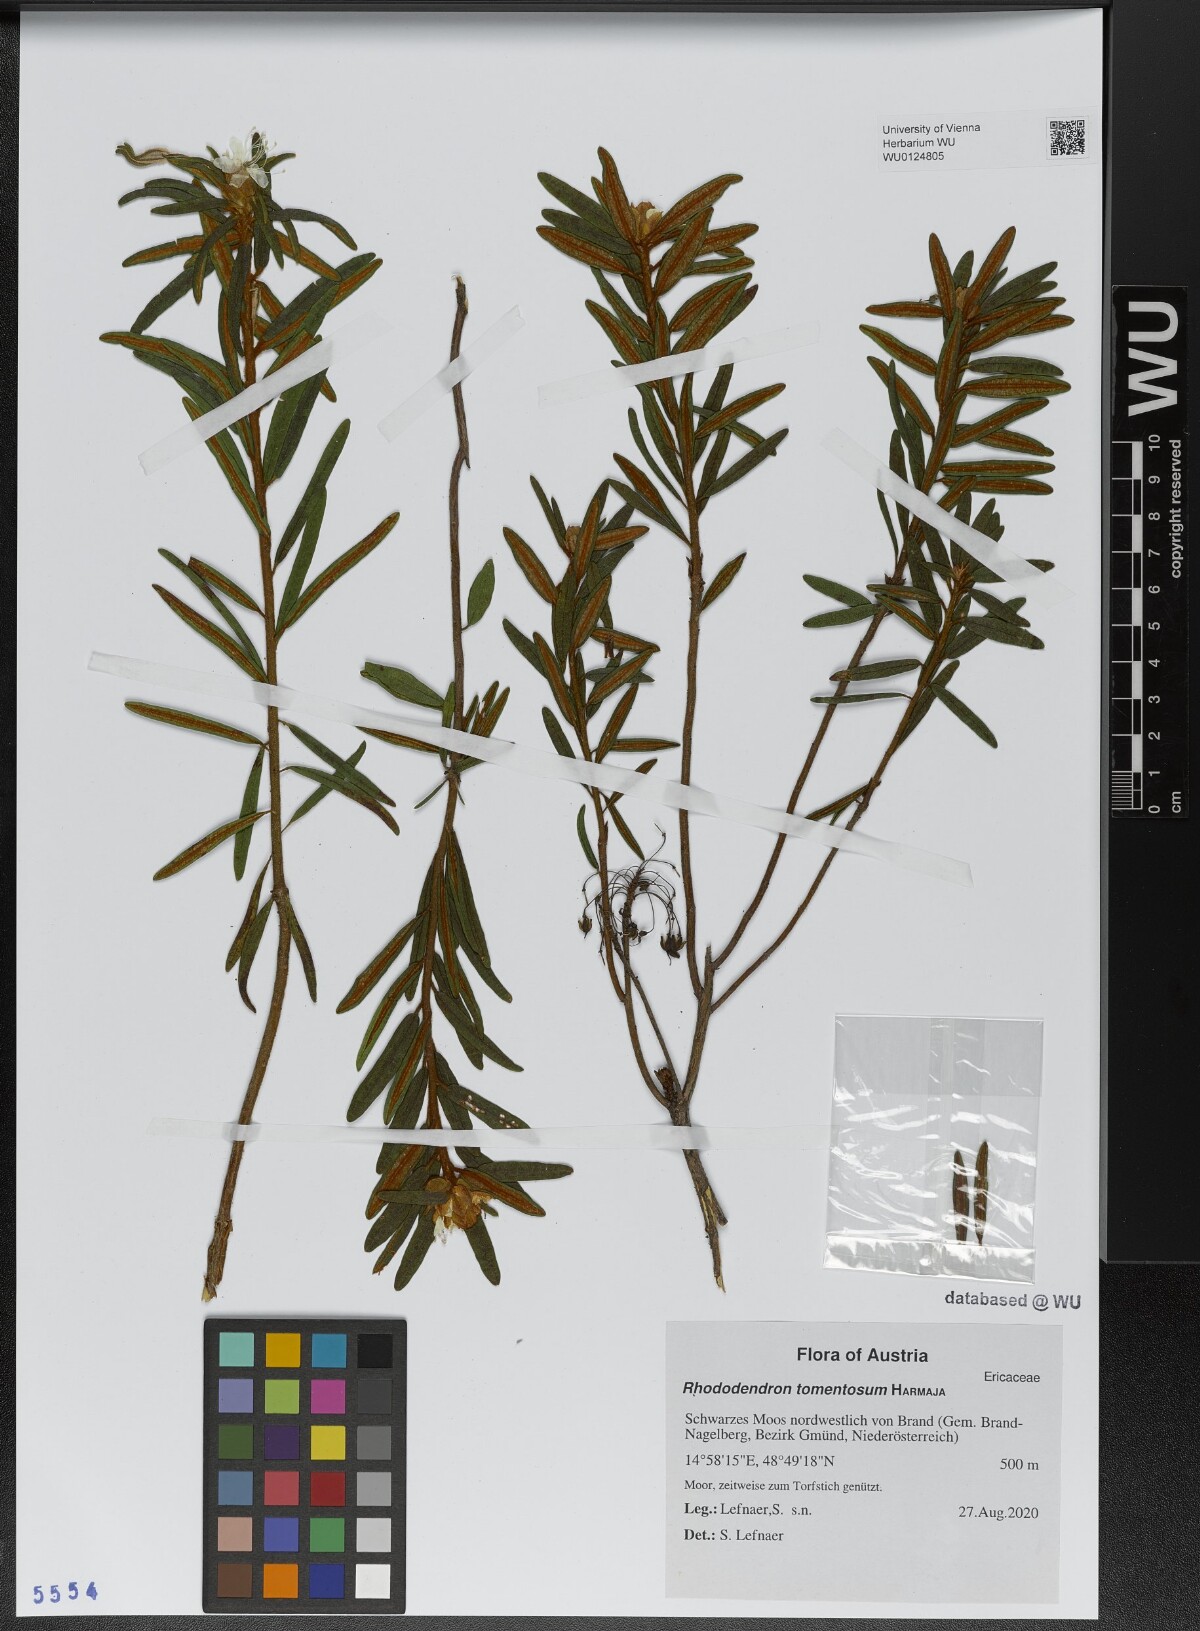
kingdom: Plantae
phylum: Tracheophyta
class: Magnoliopsida
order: Ericales
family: Ericaceae
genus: Rhododendron
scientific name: Rhododendron tomentosum
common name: Marsh labrador tea
